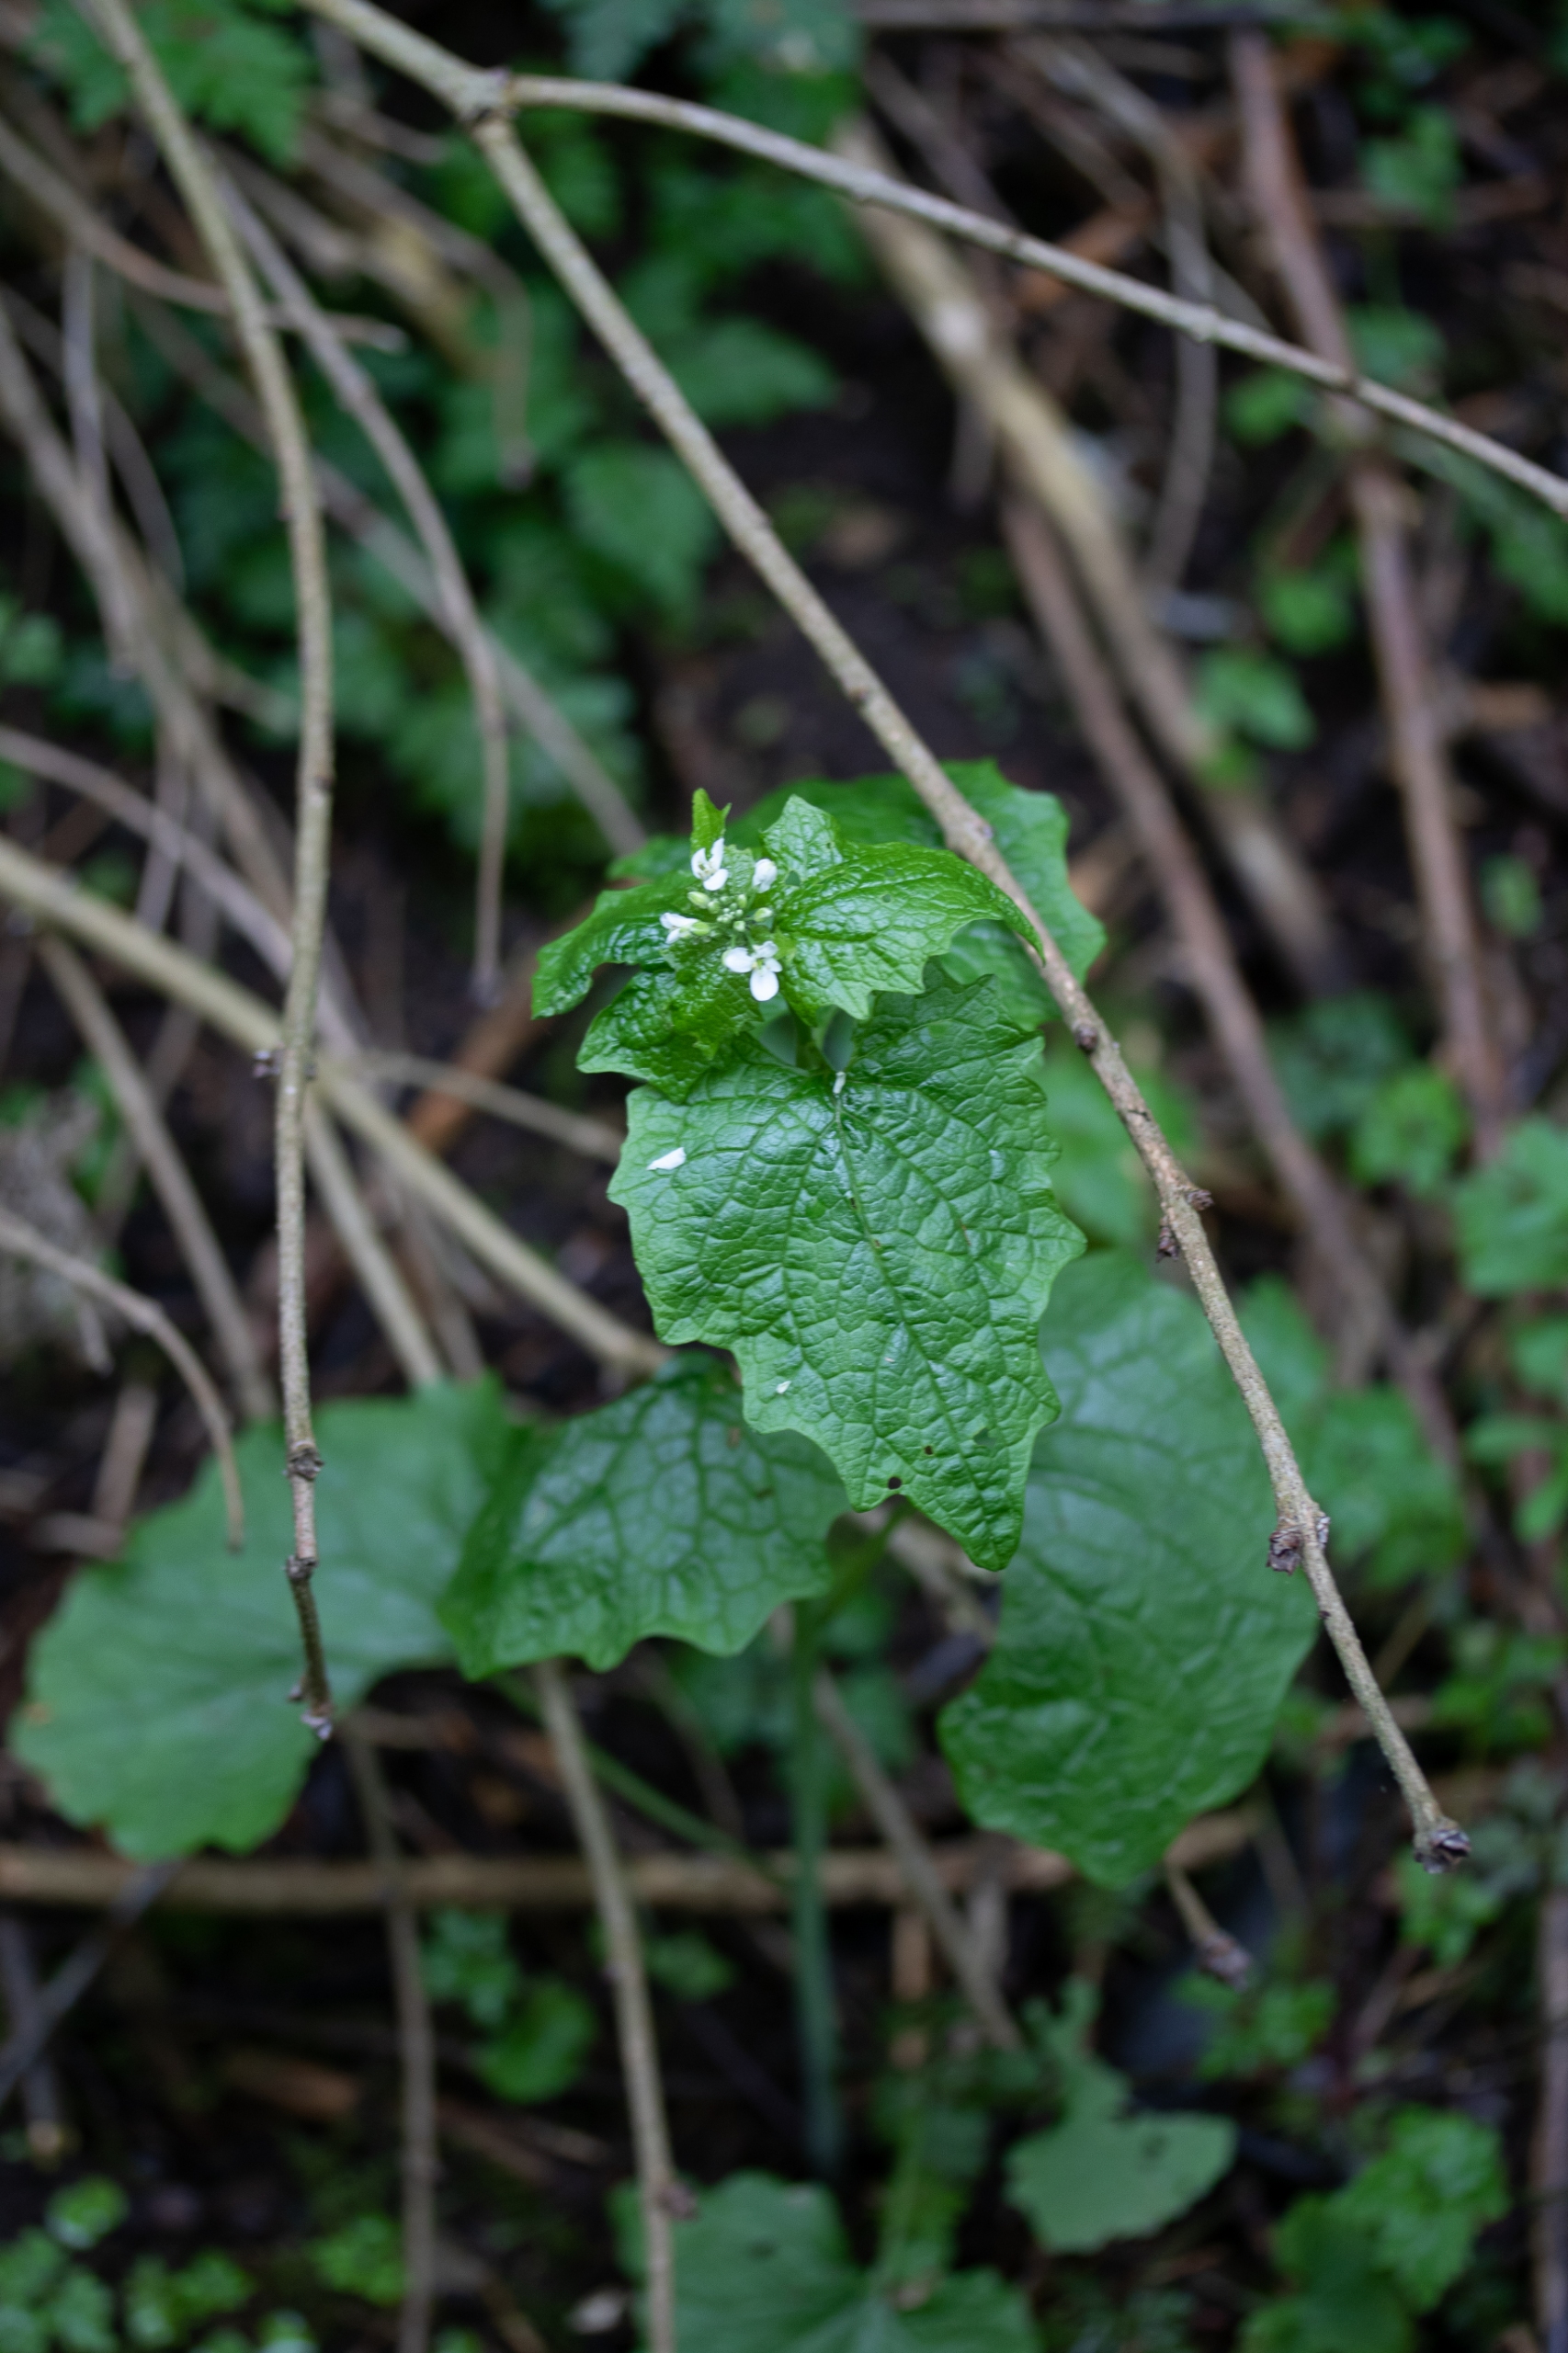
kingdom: Plantae
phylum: Tracheophyta
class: Magnoliopsida
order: Brassicales
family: Brassicaceae
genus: Alliaria
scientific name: Alliaria petiolata
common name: Løgkarse
